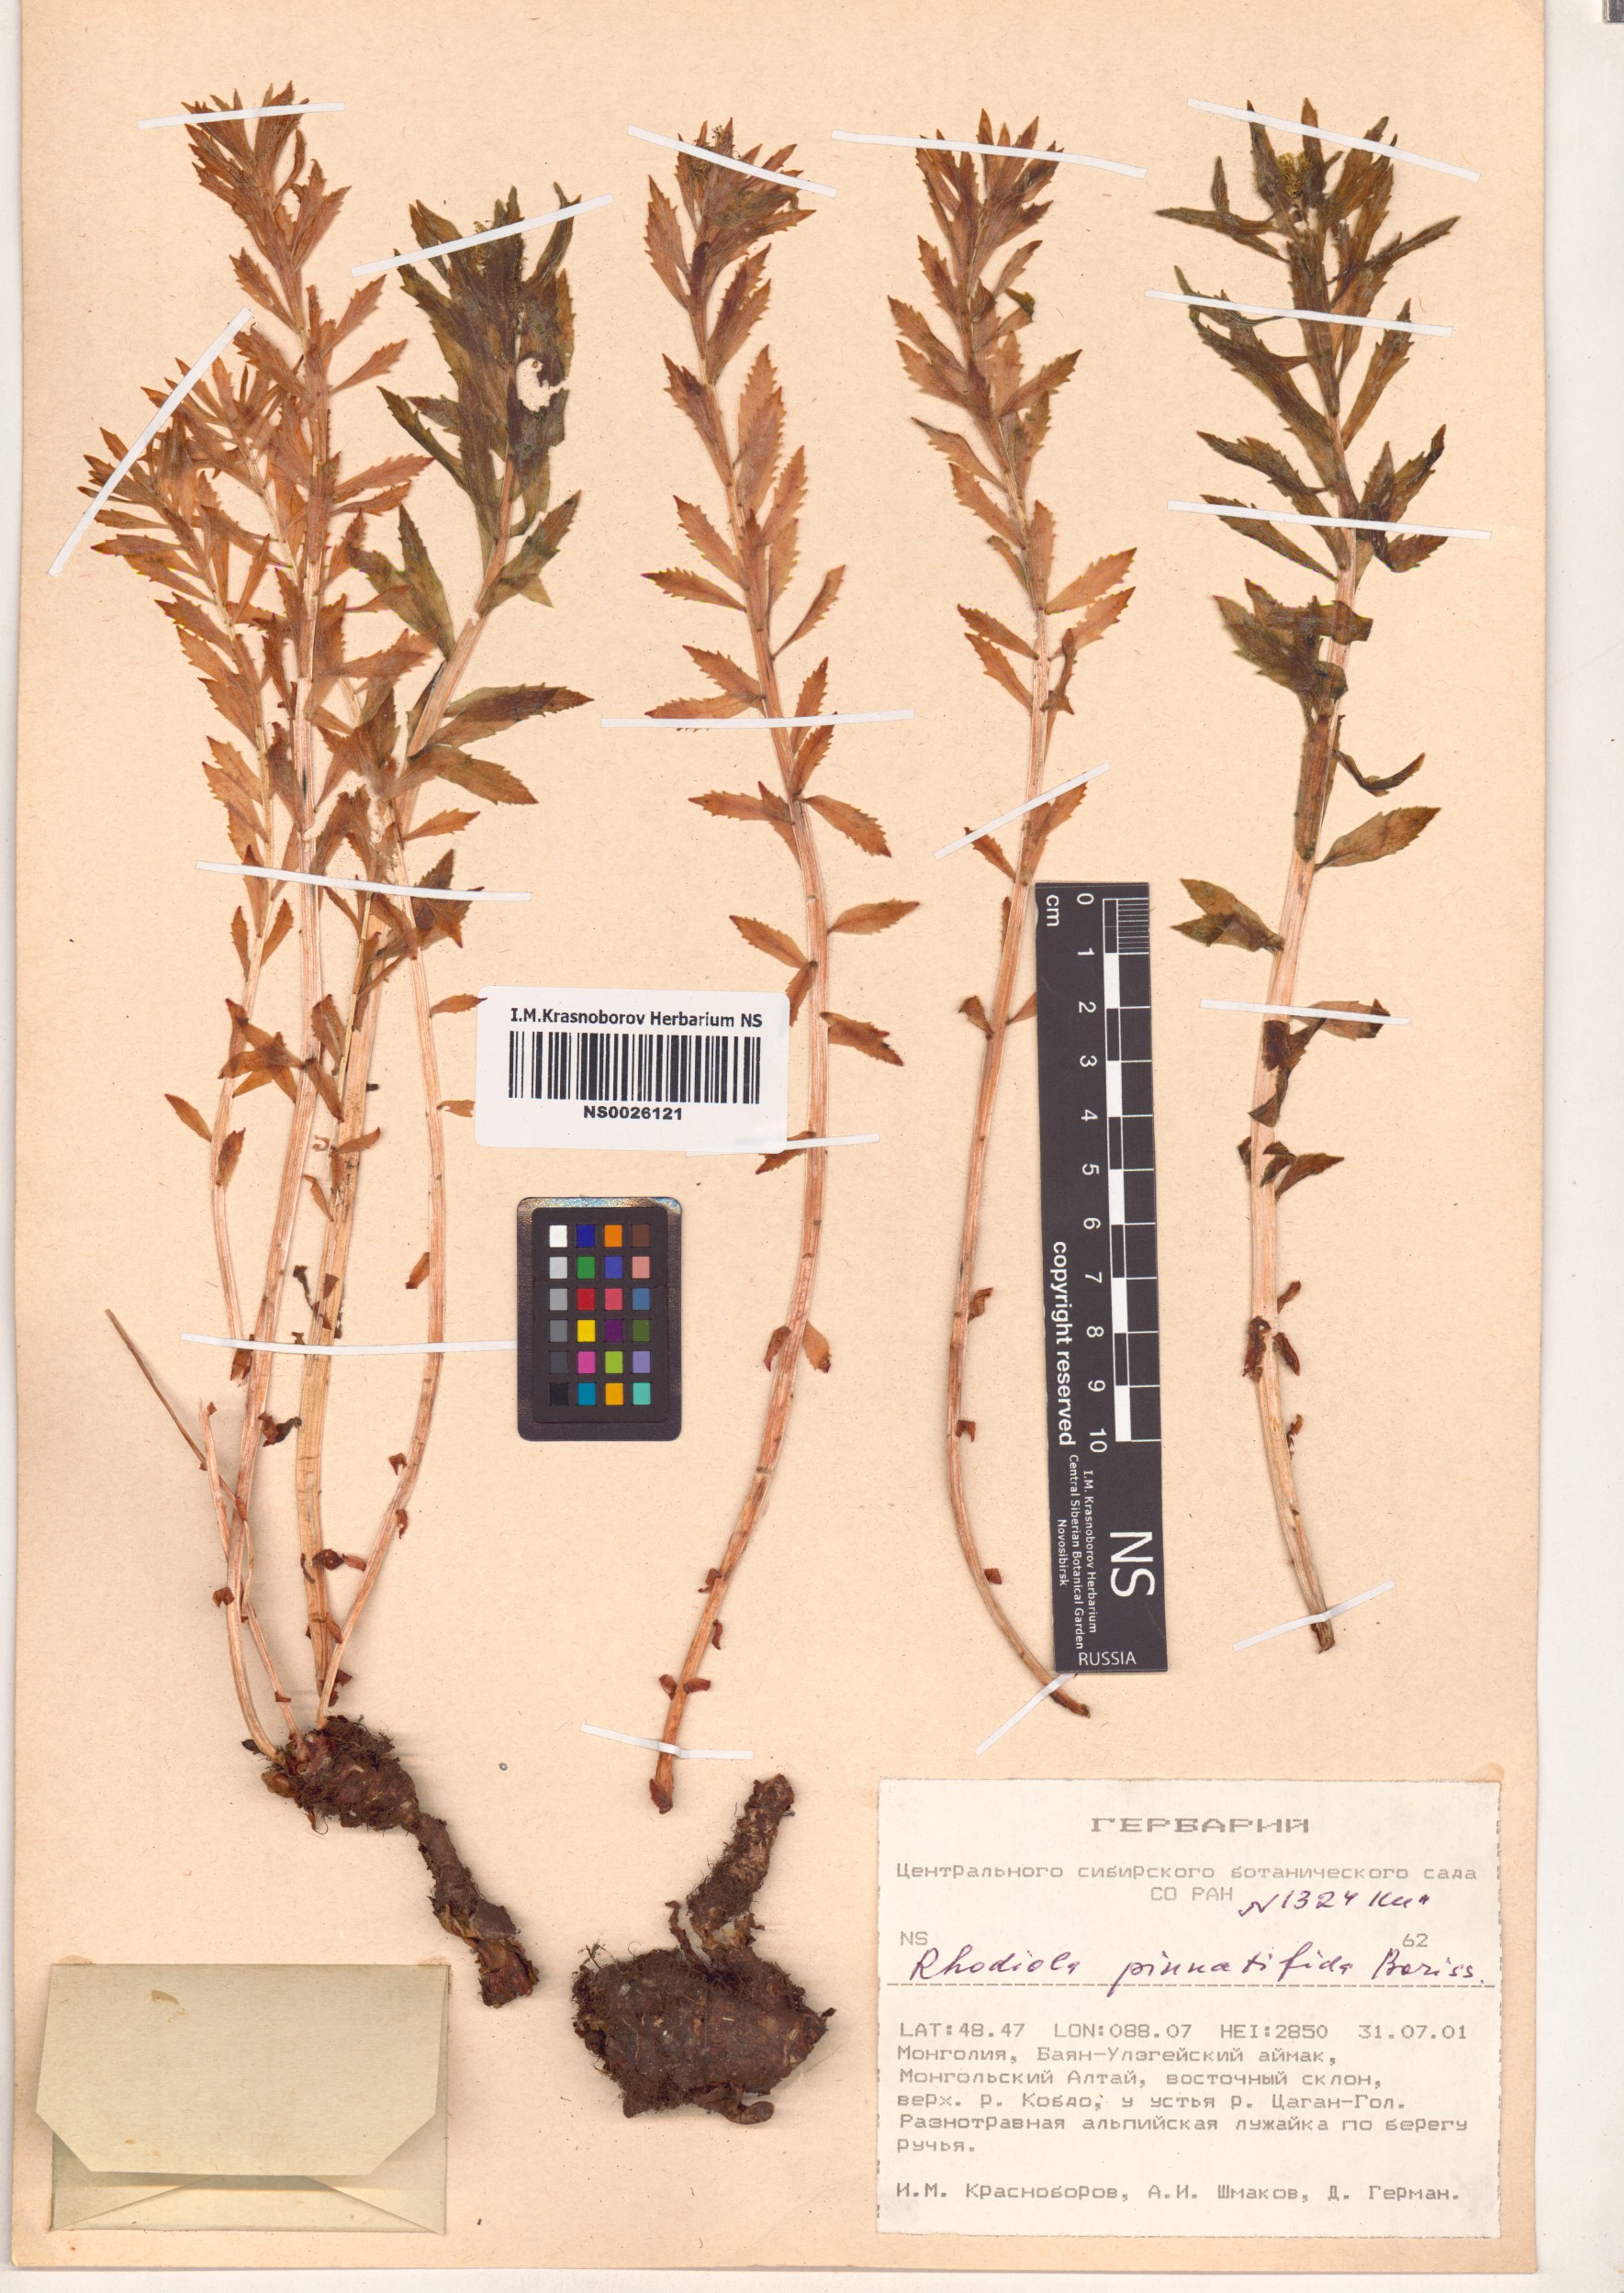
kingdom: Plantae
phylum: Tracheophyta
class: Magnoliopsida
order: Saxifragales
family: Crassulaceae
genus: Rhodiola
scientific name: Rhodiola stephani
